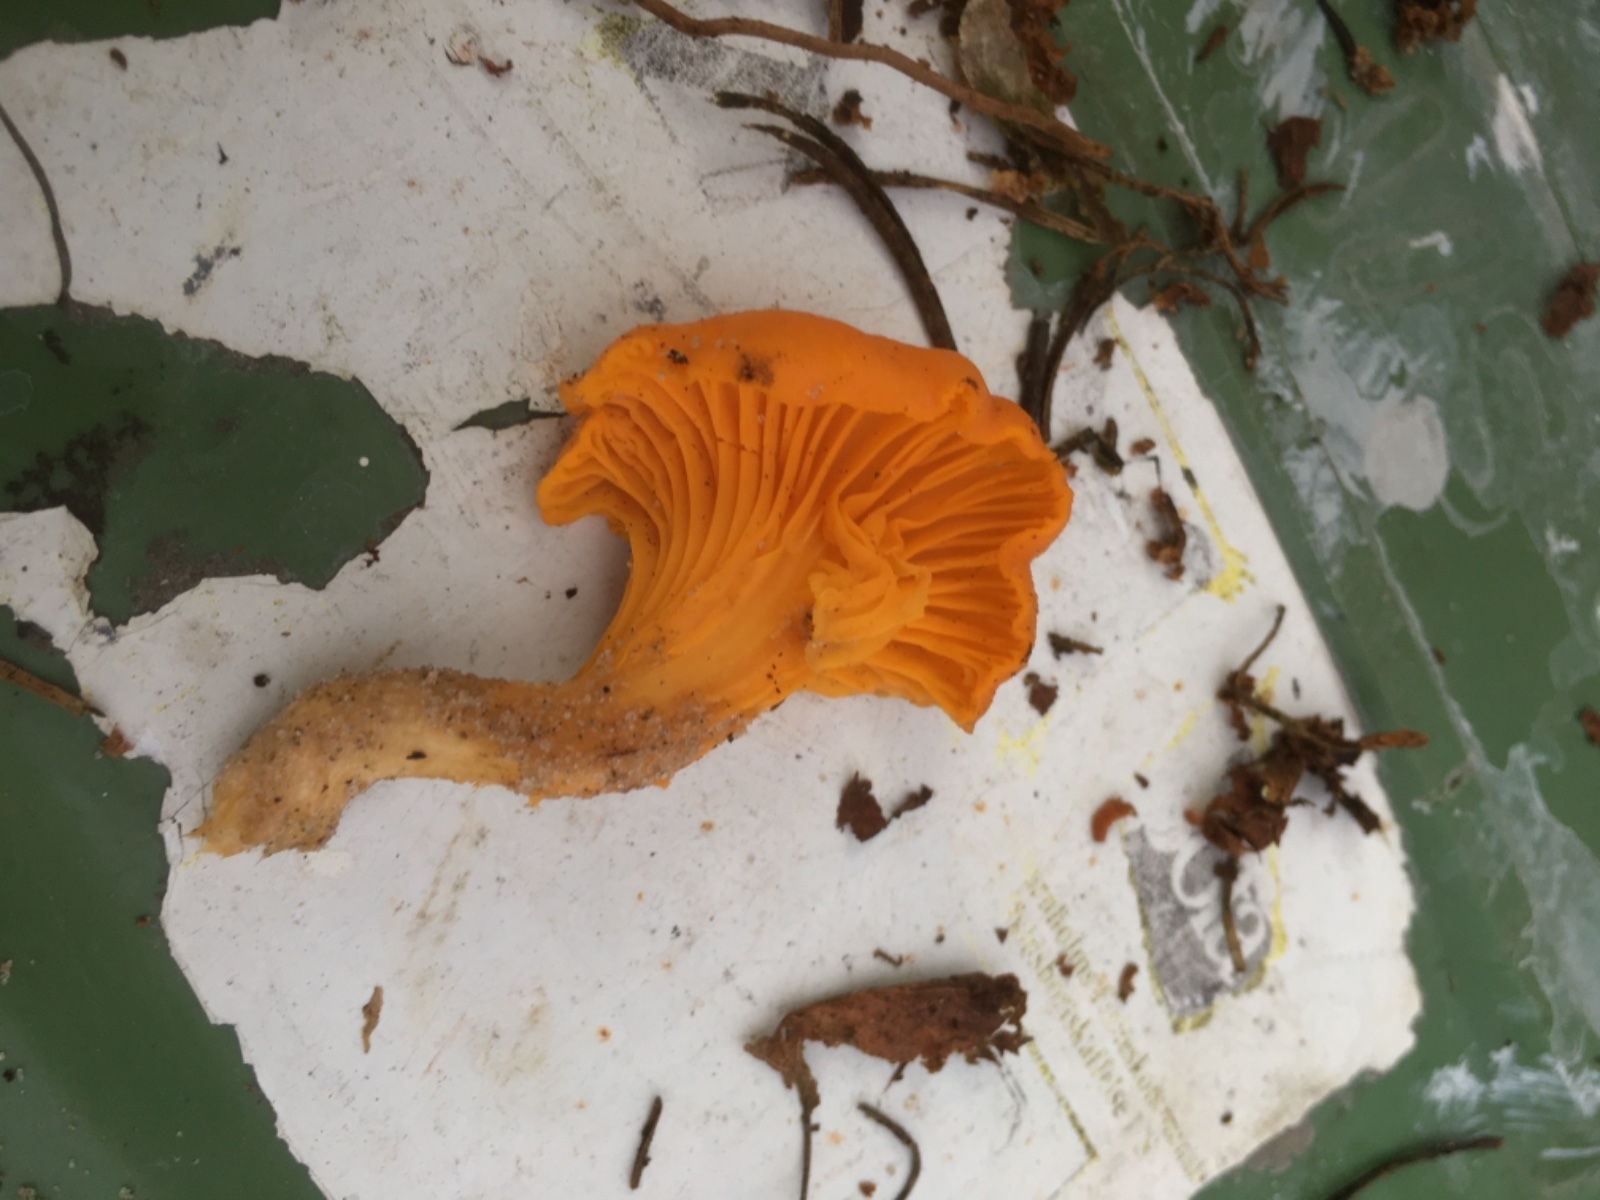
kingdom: Fungi
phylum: Basidiomycota
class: Agaricomycetes
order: Cantharellales
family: Hydnaceae
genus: Cantharellus
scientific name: Cantharellus cibarius
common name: almindelig kantarel
